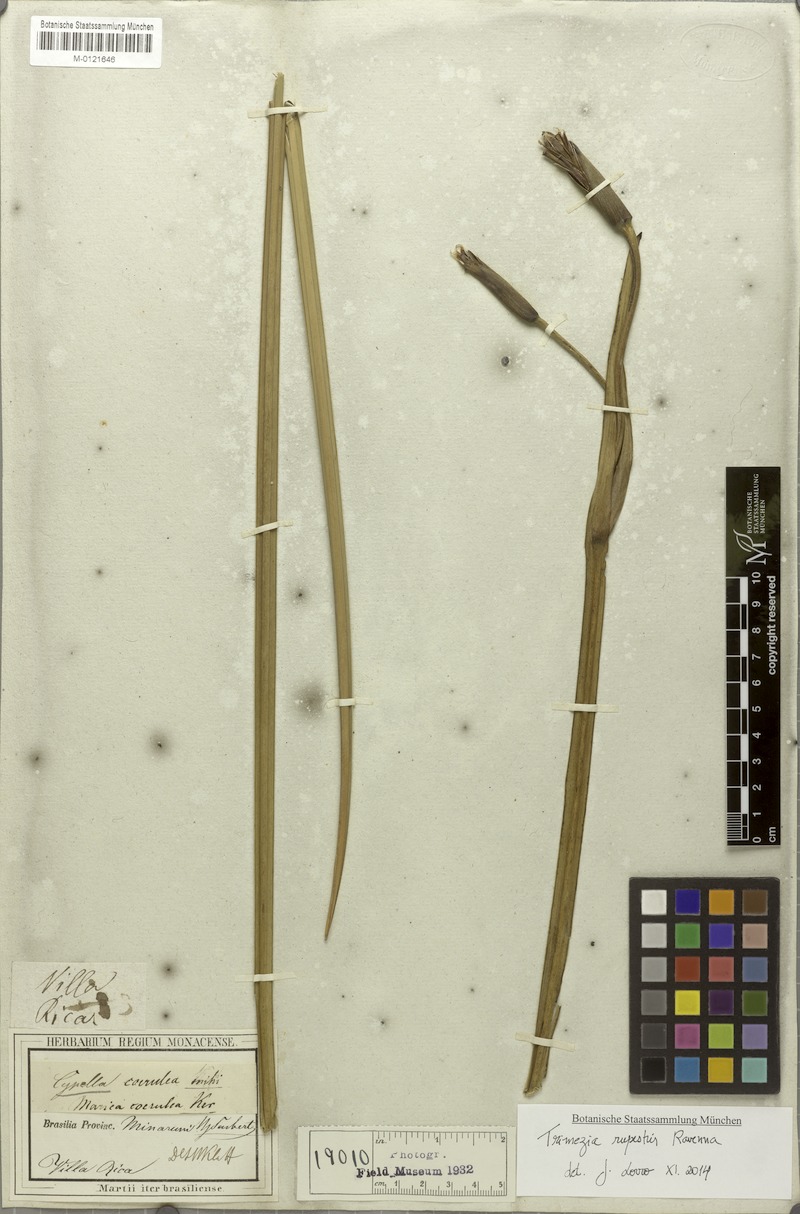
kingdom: Plantae
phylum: Tracheophyta
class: Liliopsida
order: Asparagales
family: Iridaceae
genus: Trimezia
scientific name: Trimezia rupestris
